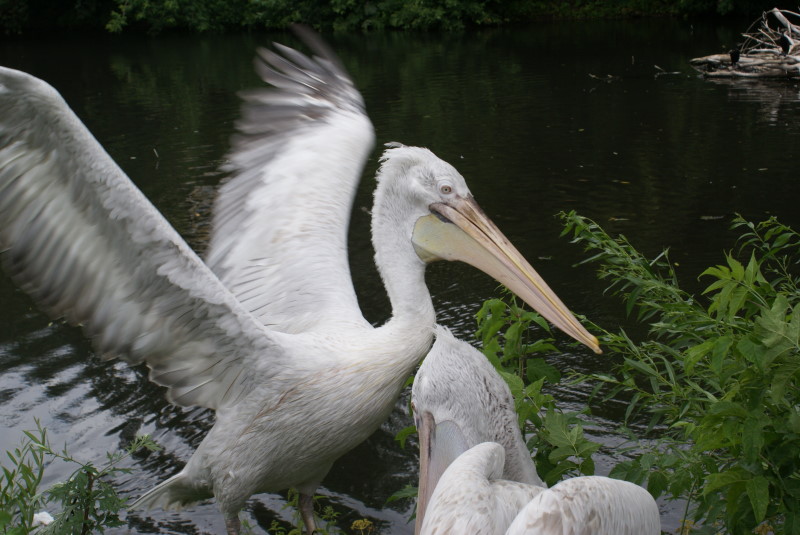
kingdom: Animalia
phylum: Chordata
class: Aves
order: Pelecaniformes
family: Pelecanidae
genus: Pelecanus
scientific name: Pelecanus onocrotalus
